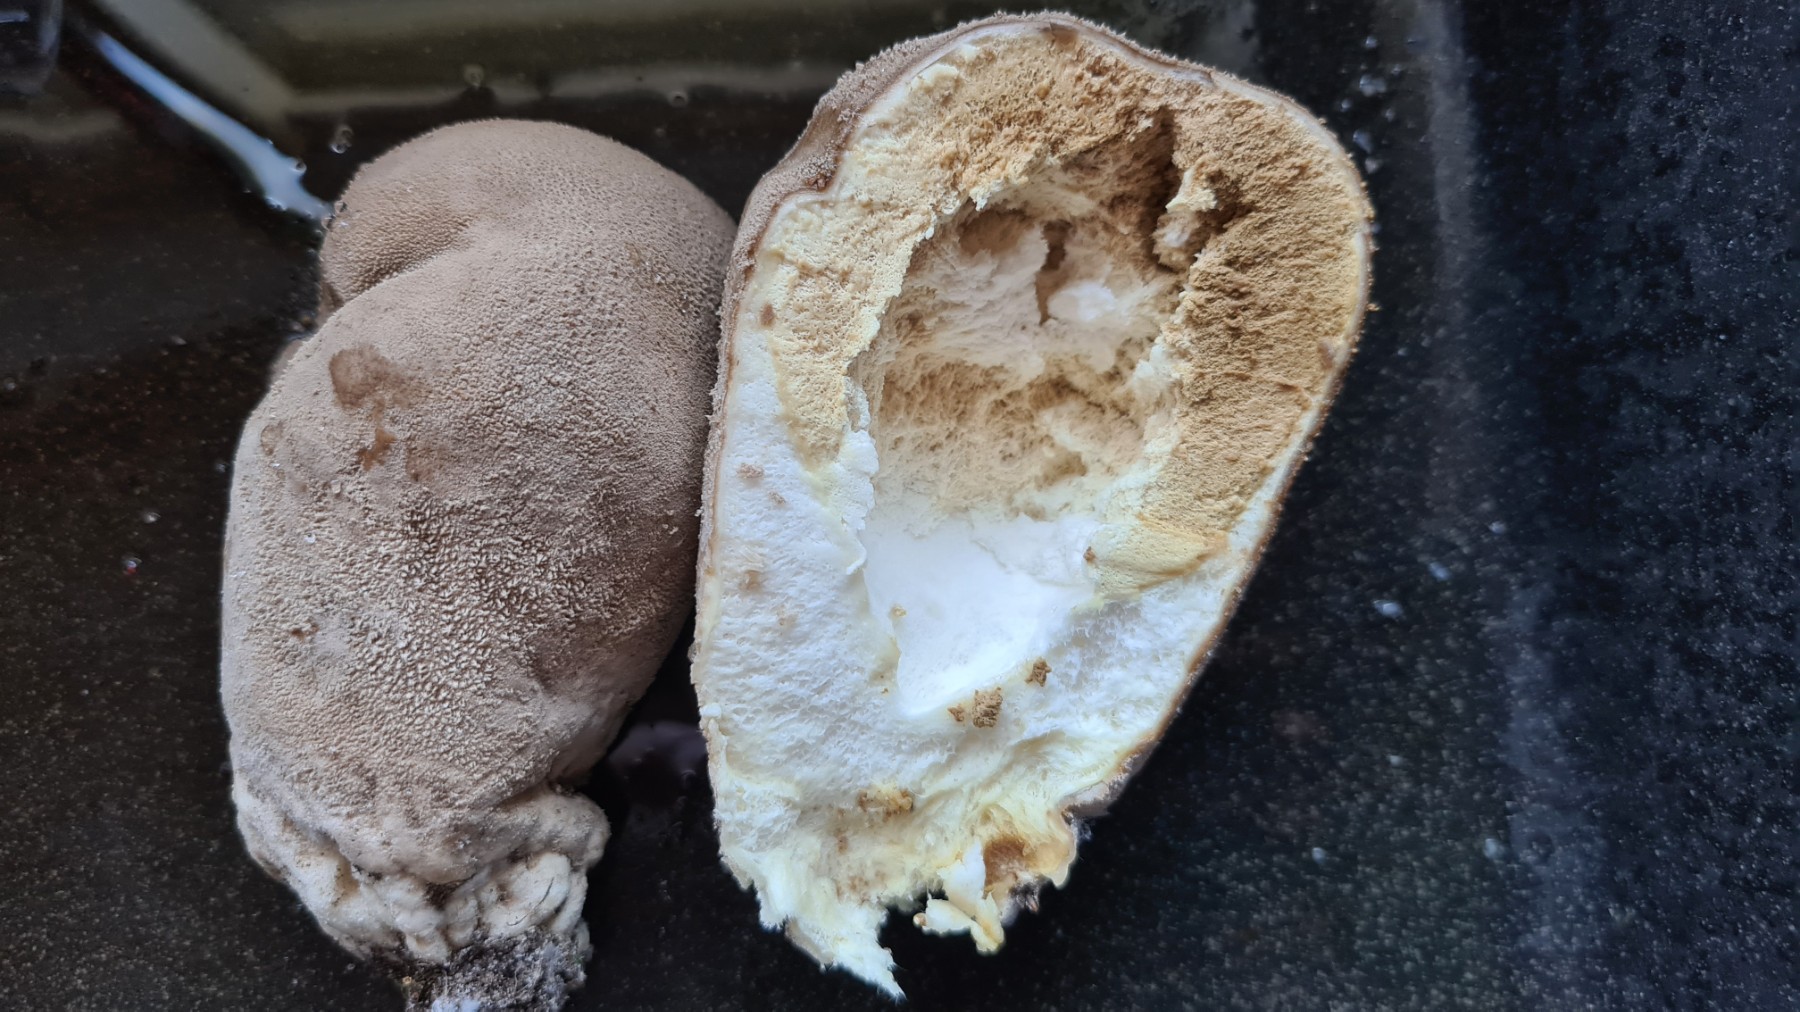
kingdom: Fungi
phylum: Basidiomycota
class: Agaricomycetes
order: Agaricales
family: Lycoperdaceae
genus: Bovistella
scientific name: Bovistella utriformis
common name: skællet støvbold
